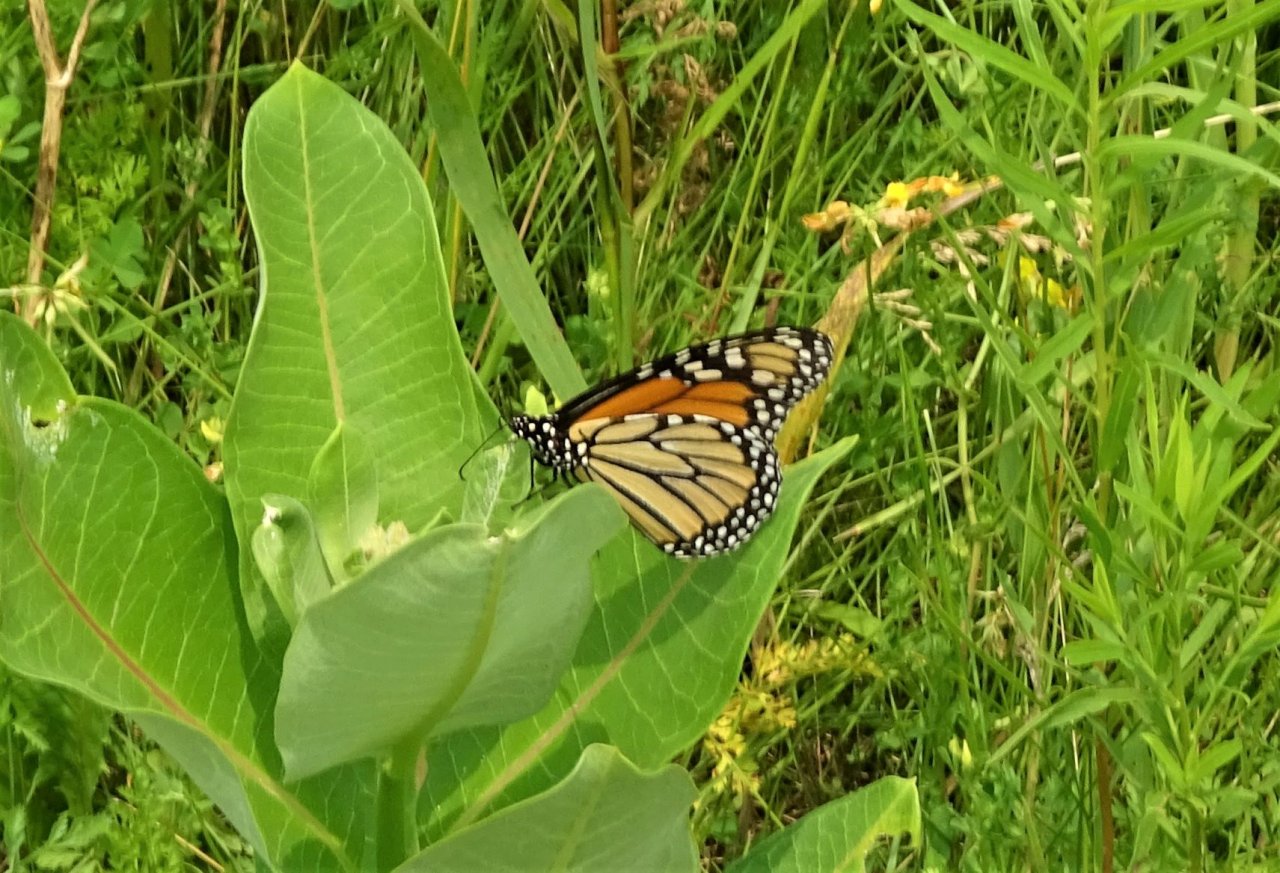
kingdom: Animalia
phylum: Arthropoda
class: Insecta
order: Lepidoptera
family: Nymphalidae
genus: Danaus
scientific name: Danaus plexippus
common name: Monarch
